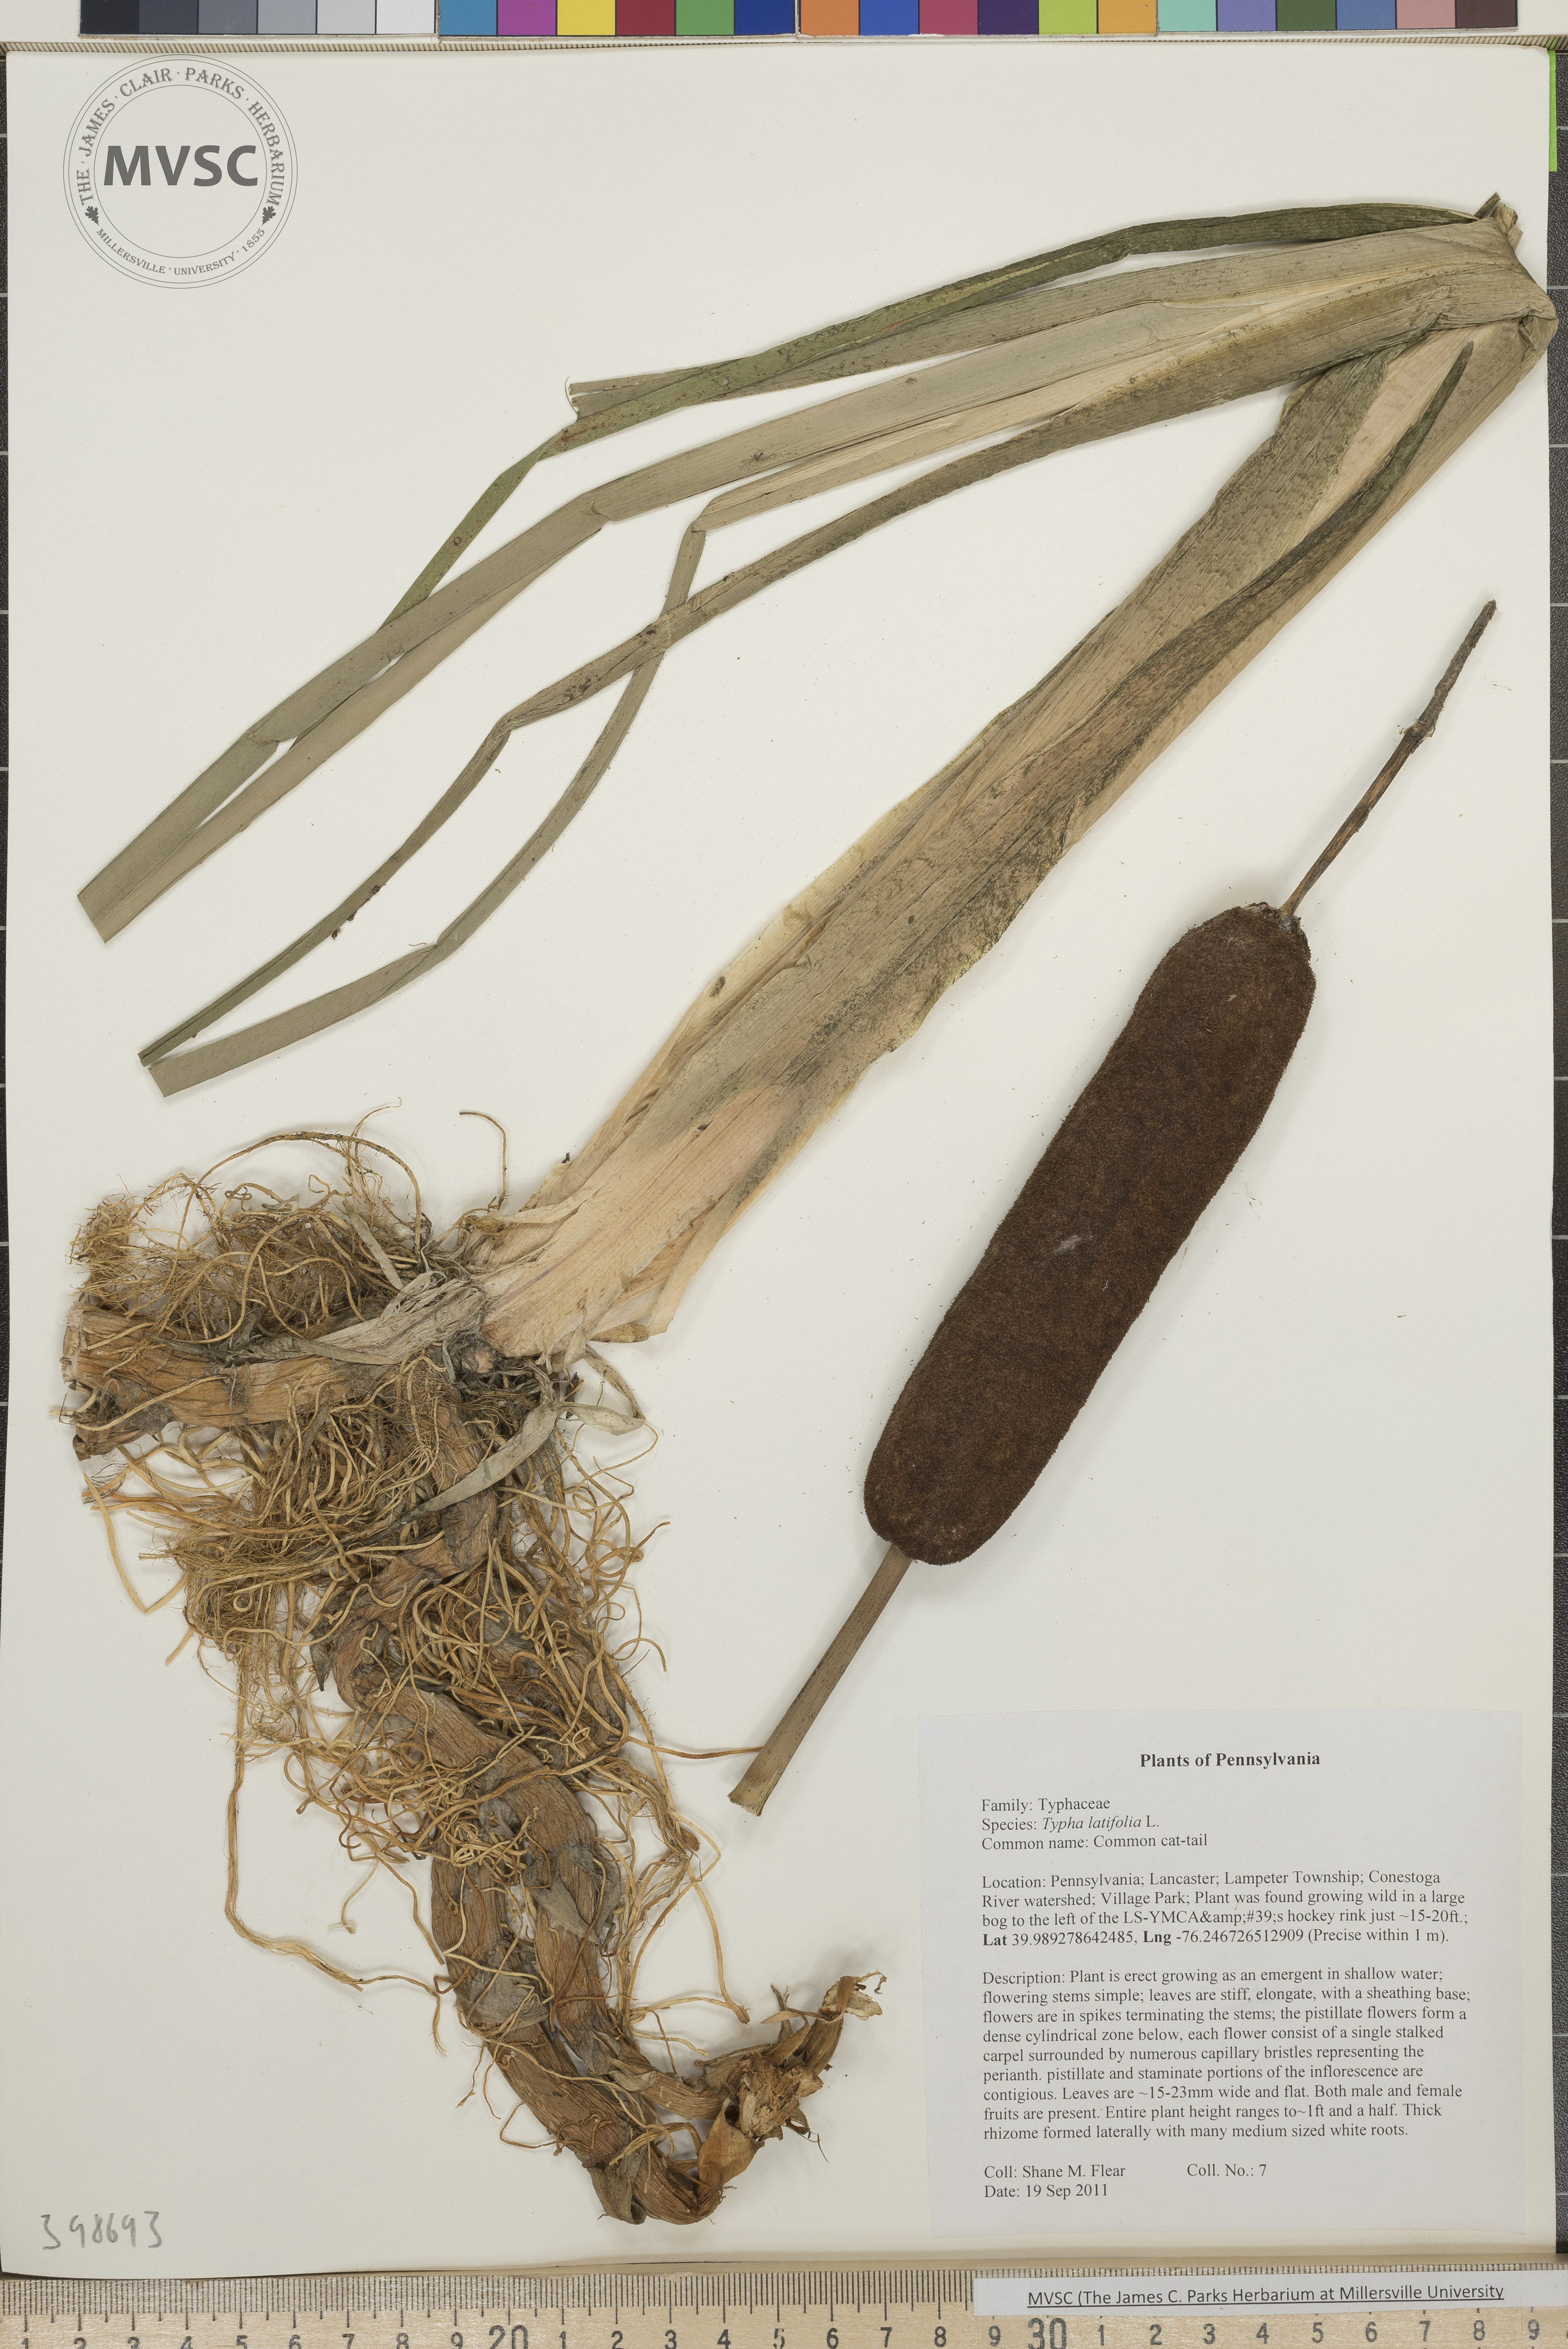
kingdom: Plantae
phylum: Tracheophyta
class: Liliopsida
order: Poales
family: Typhaceae
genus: Typha
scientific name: Typha latifolia
